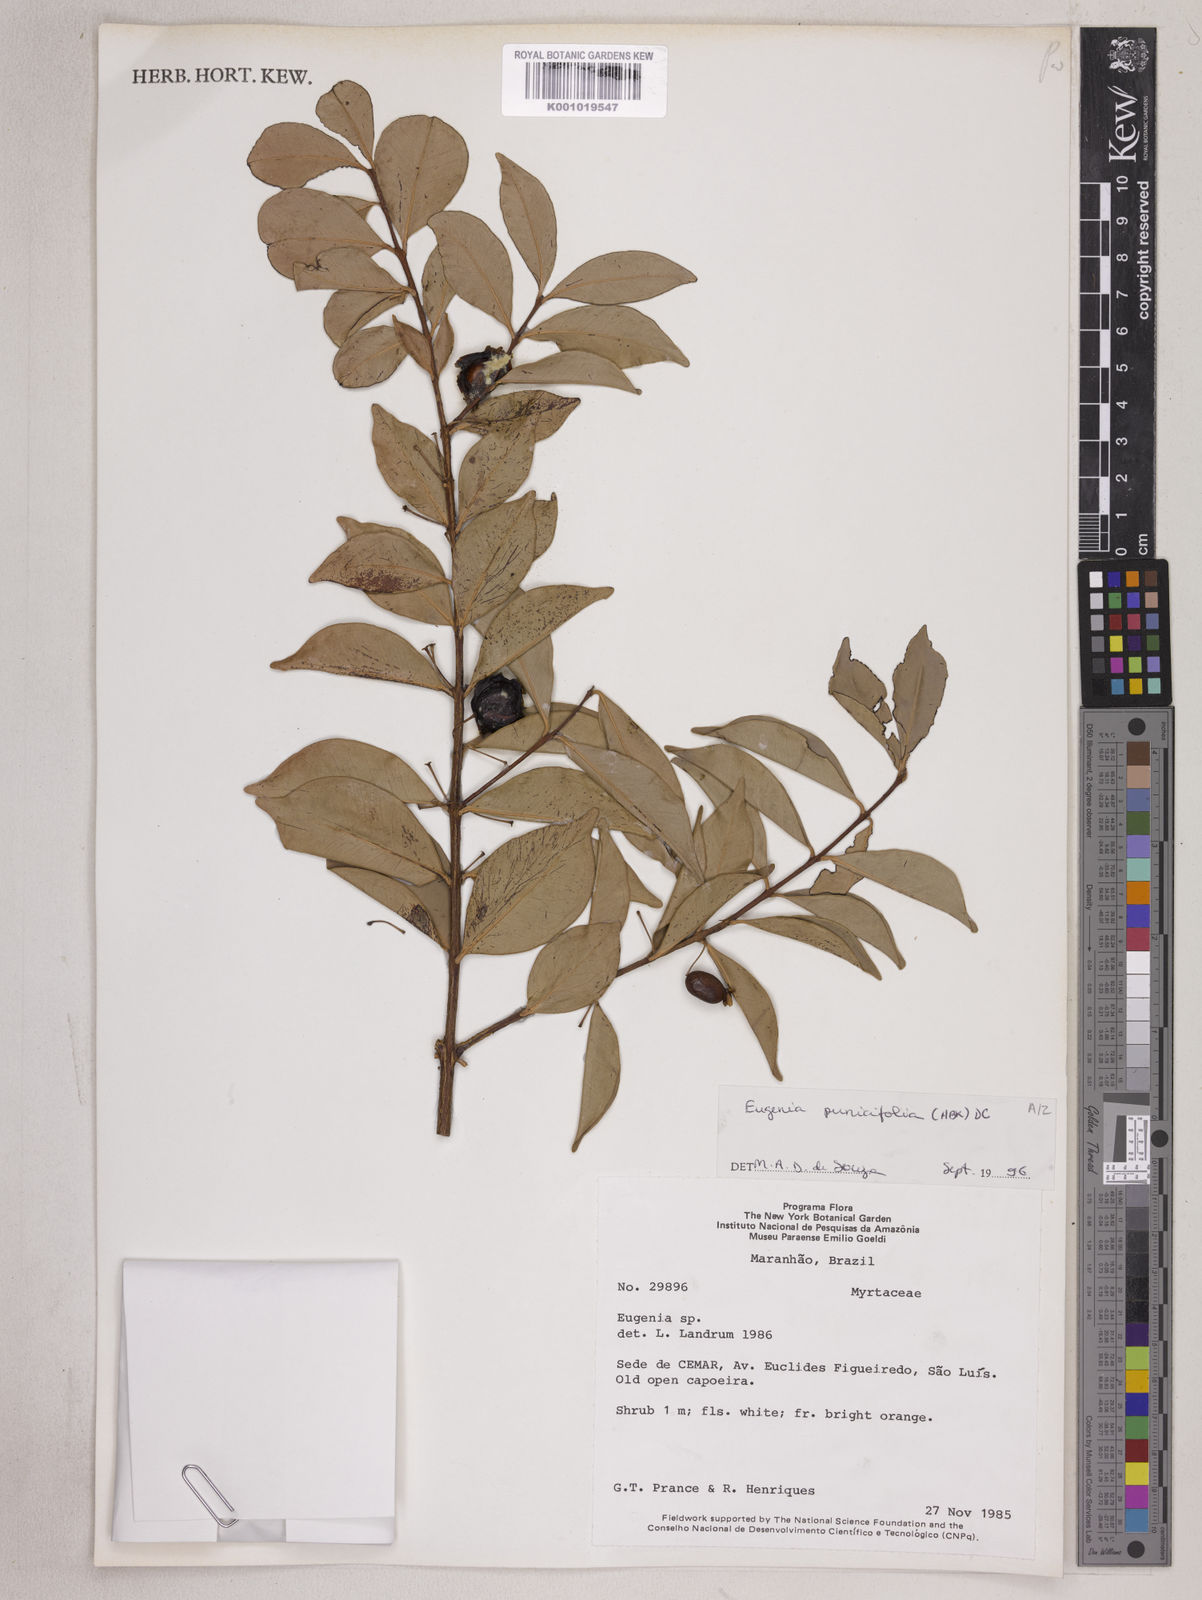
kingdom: Plantae
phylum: Tracheophyta
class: Magnoliopsida
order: Myrtales
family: Myrtaceae
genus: Eugenia
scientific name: Eugenia punicifolia
